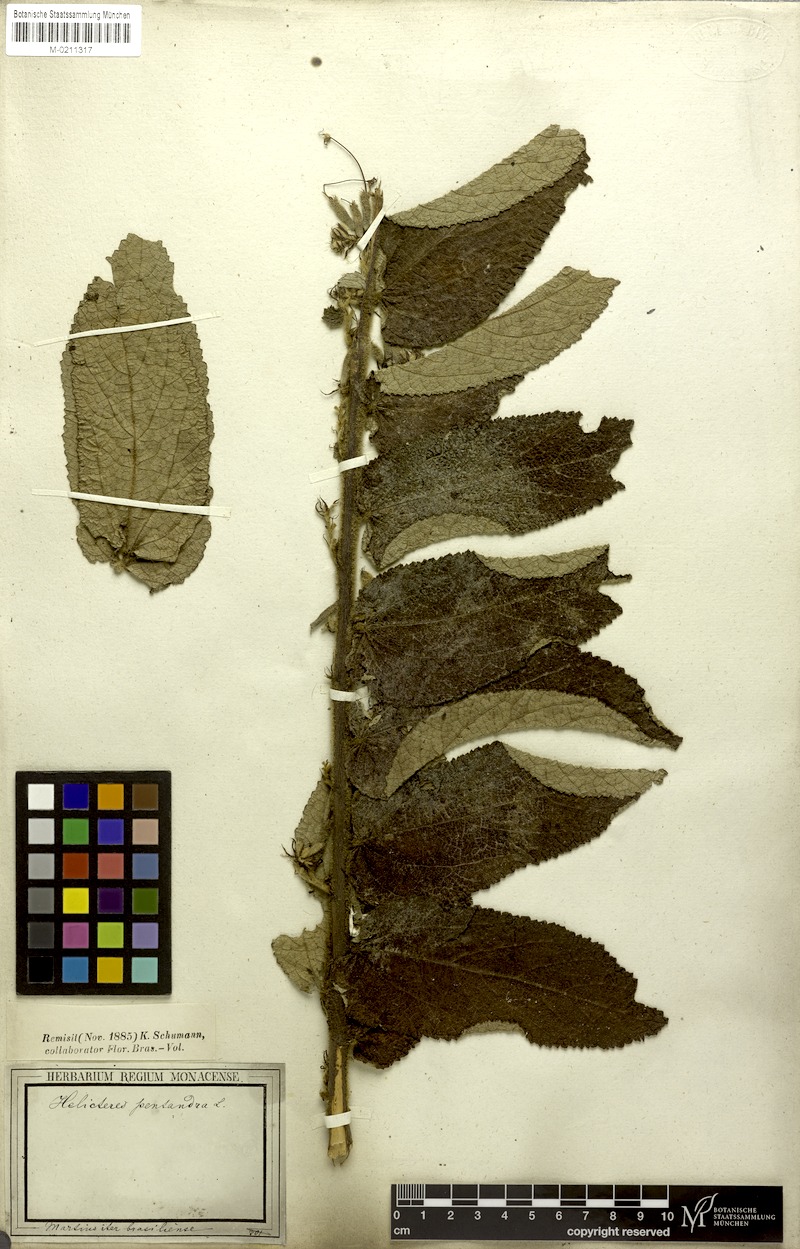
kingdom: Plantae
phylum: Tracheophyta
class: Magnoliopsida
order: Malvales
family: Malvaceae
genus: Helicteres
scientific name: Helicteres pentandra
